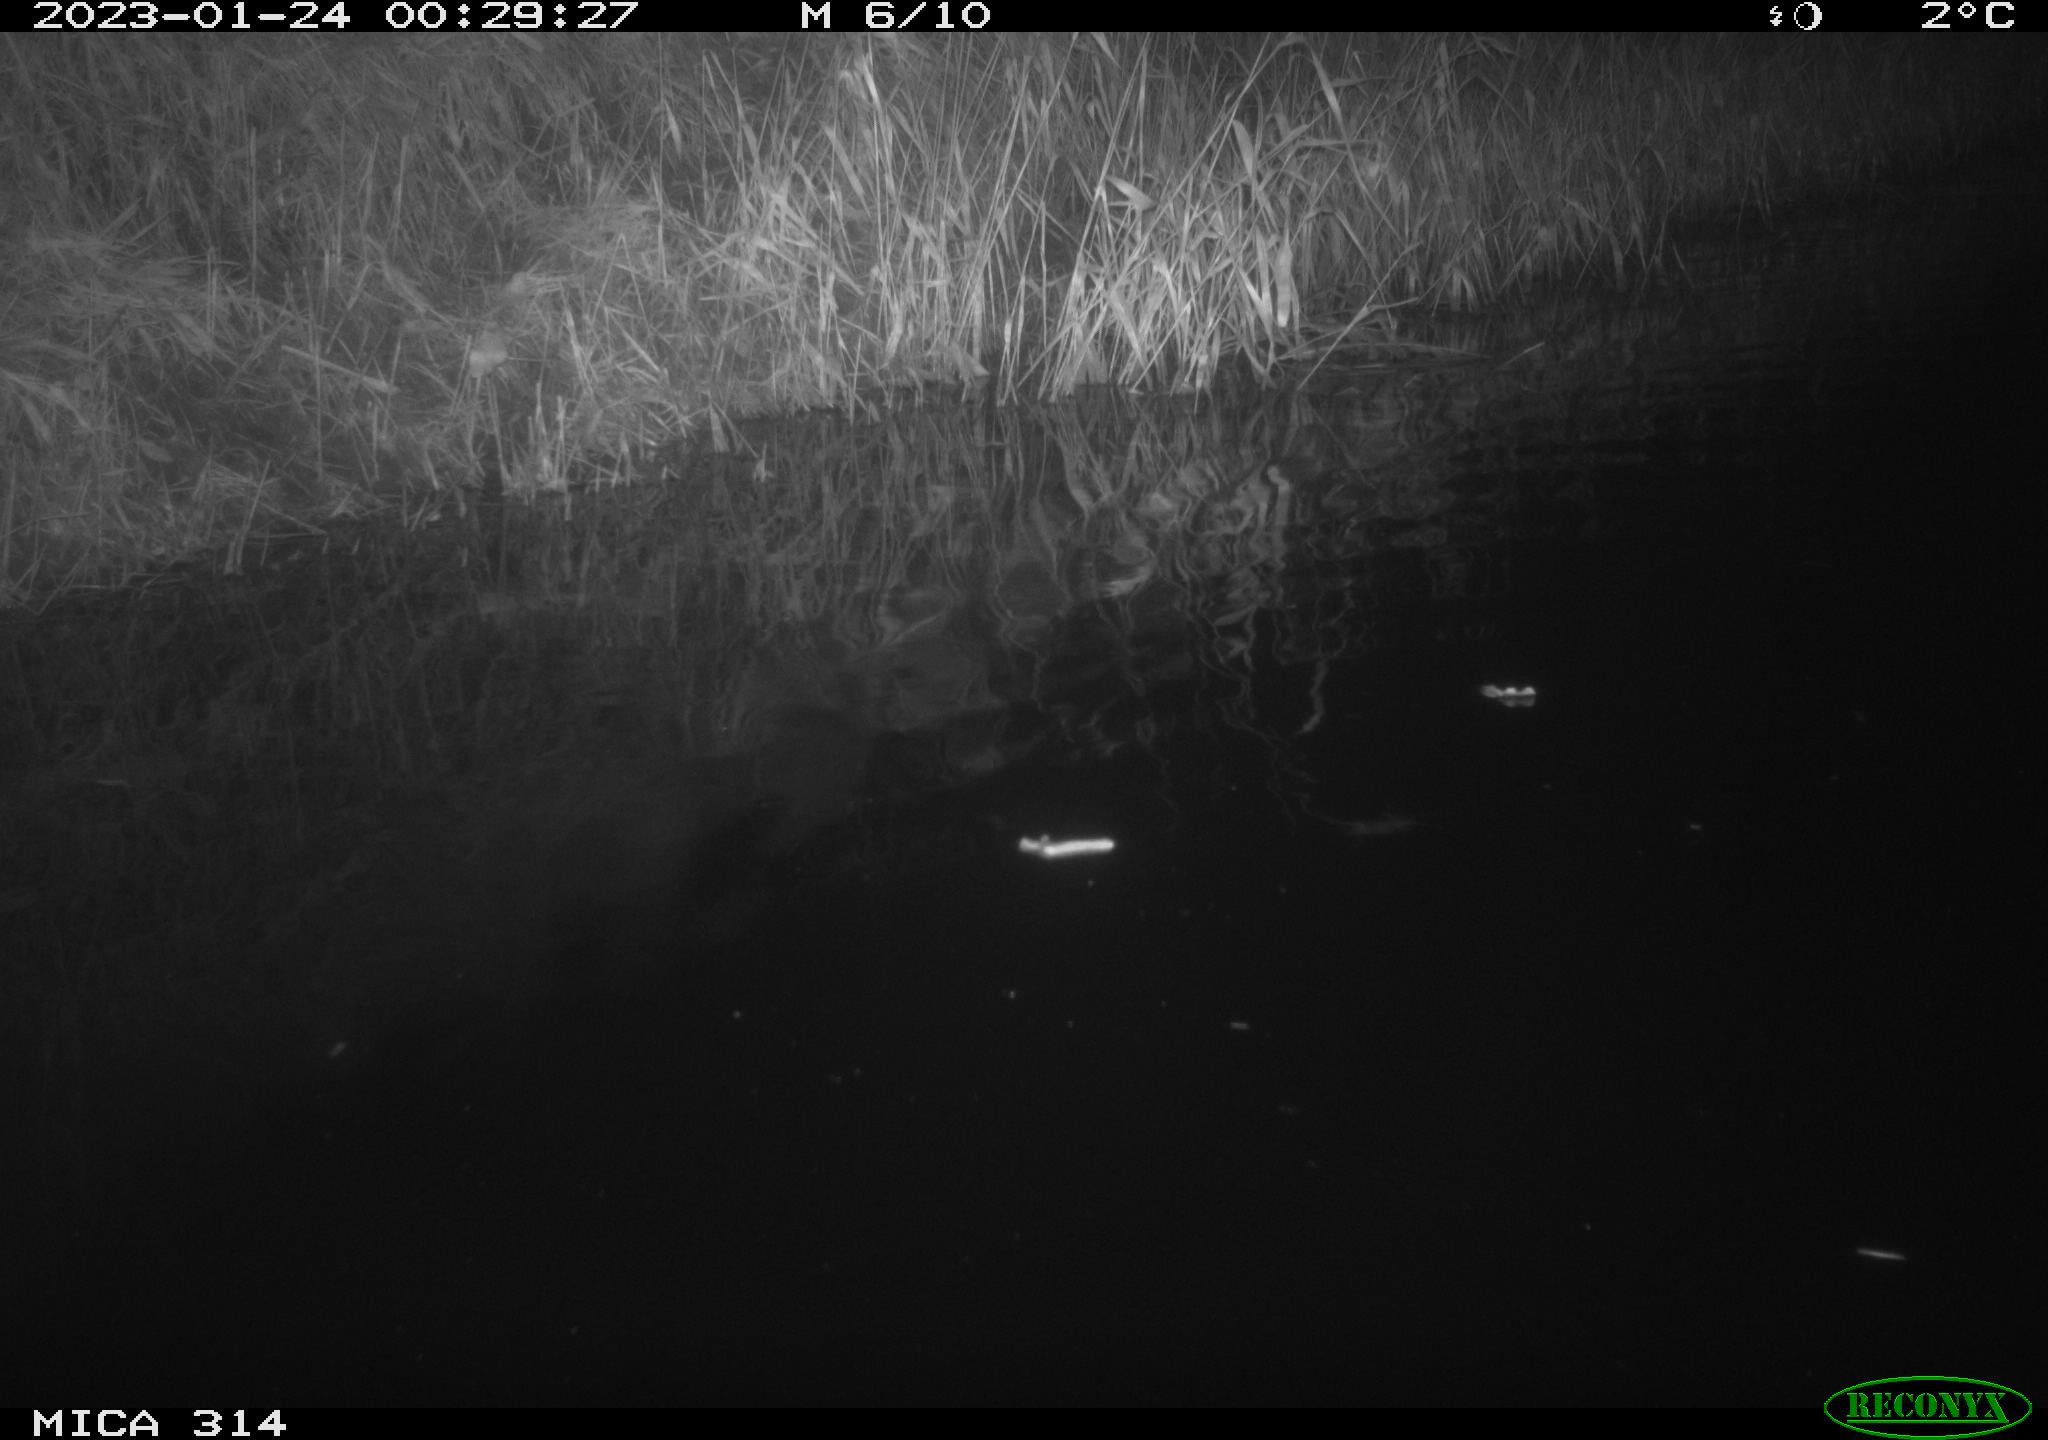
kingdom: Animalia
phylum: Chordata
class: Mammalia
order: Rodentia
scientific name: Rodentia
